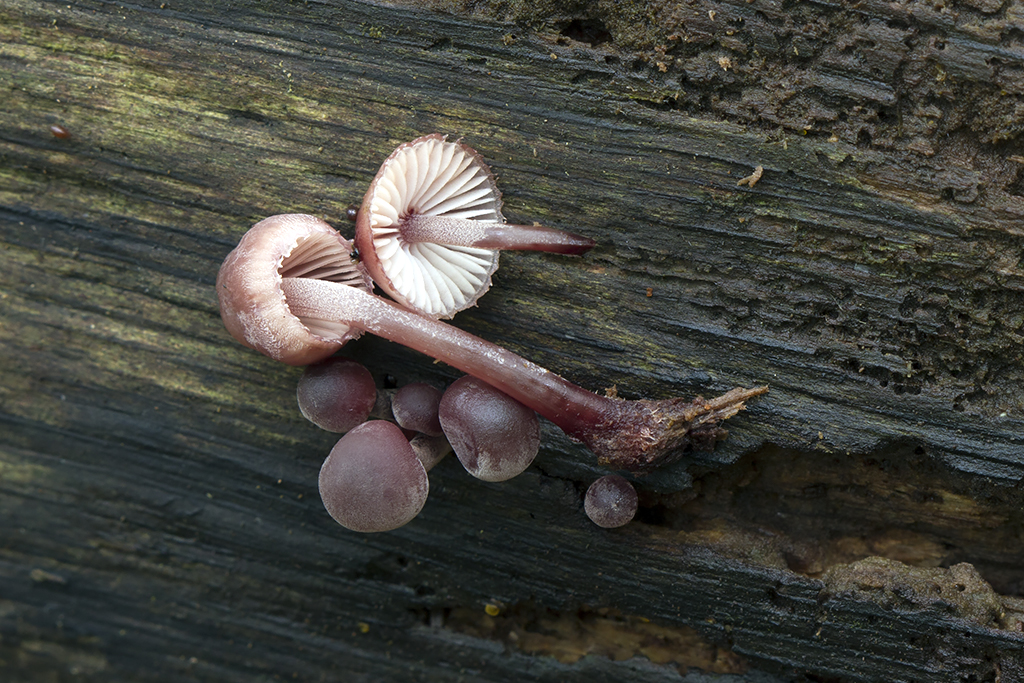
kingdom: Fungi
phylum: Basidiomycota
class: Agaricomycetes
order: Agaricales
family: Mycenaceae
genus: Mycena
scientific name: Mycena haematopus
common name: blødende huesvamp
